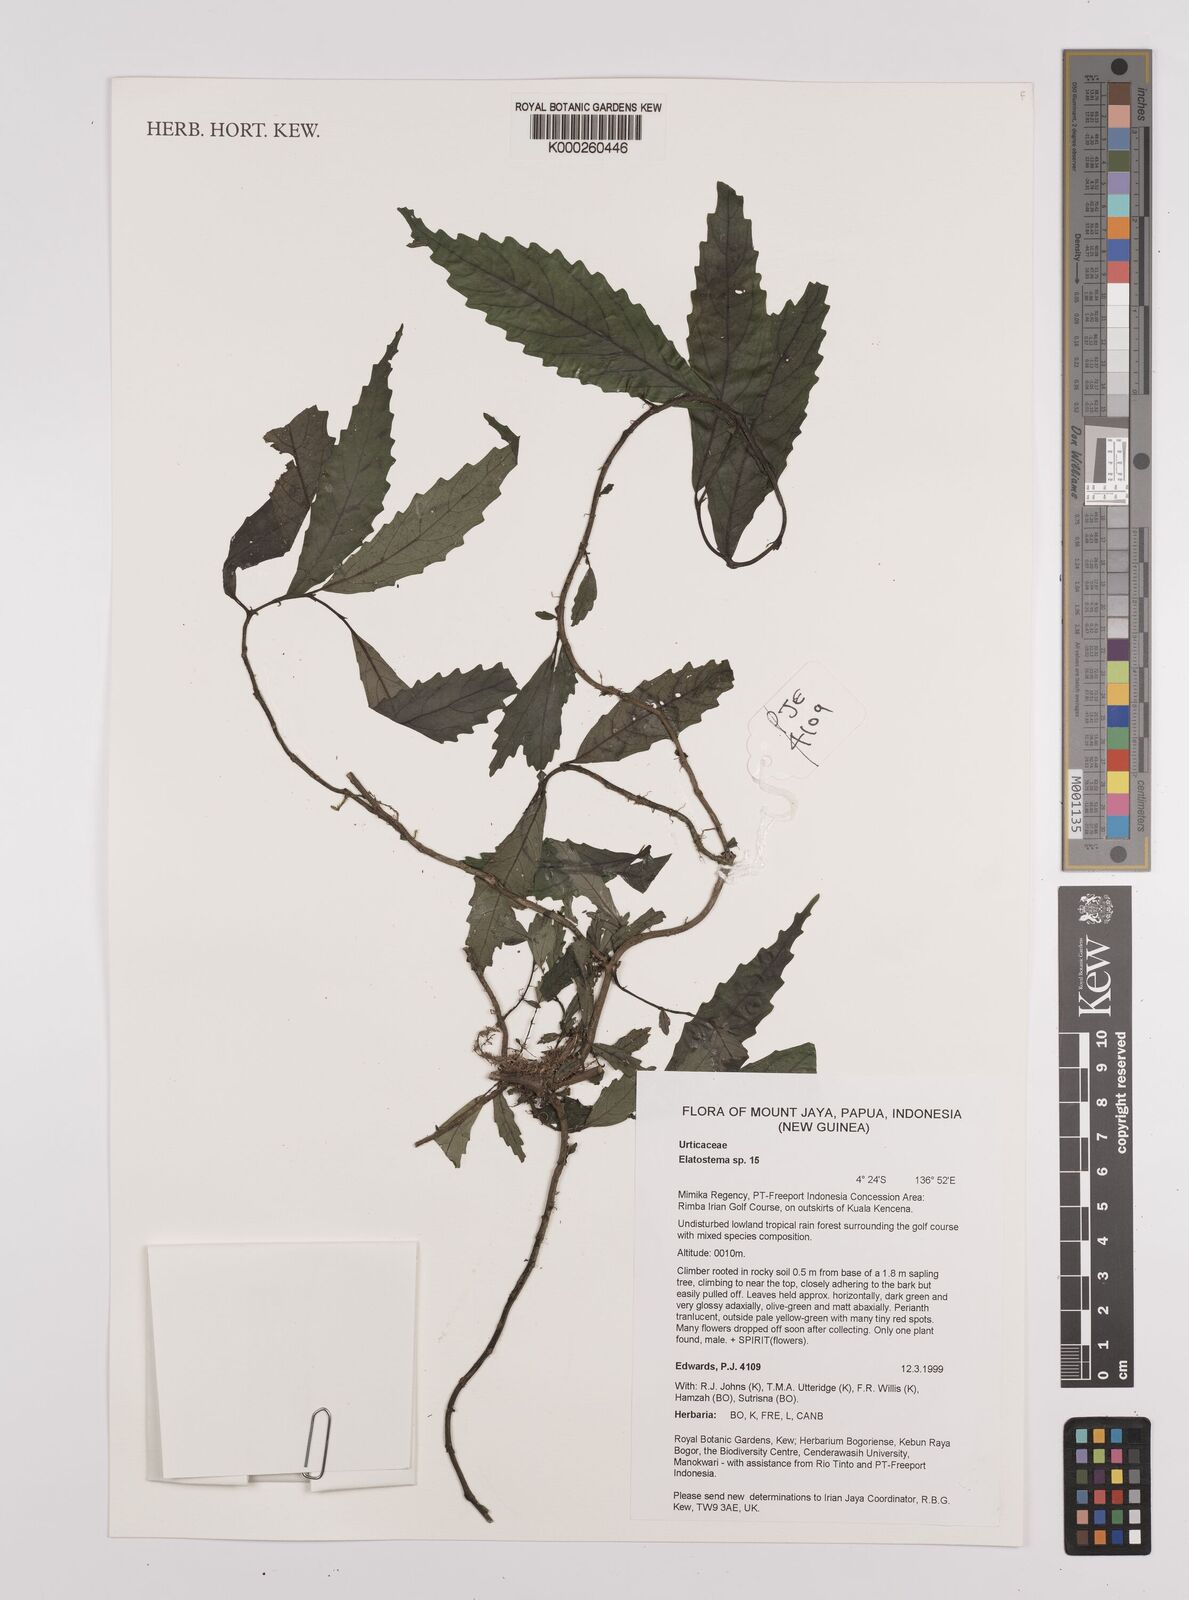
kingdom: Plantae
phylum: Tracheophyta
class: Magnoliopsida
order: Rosales
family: Urticaceae
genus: Elatostema
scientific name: Elatostema
